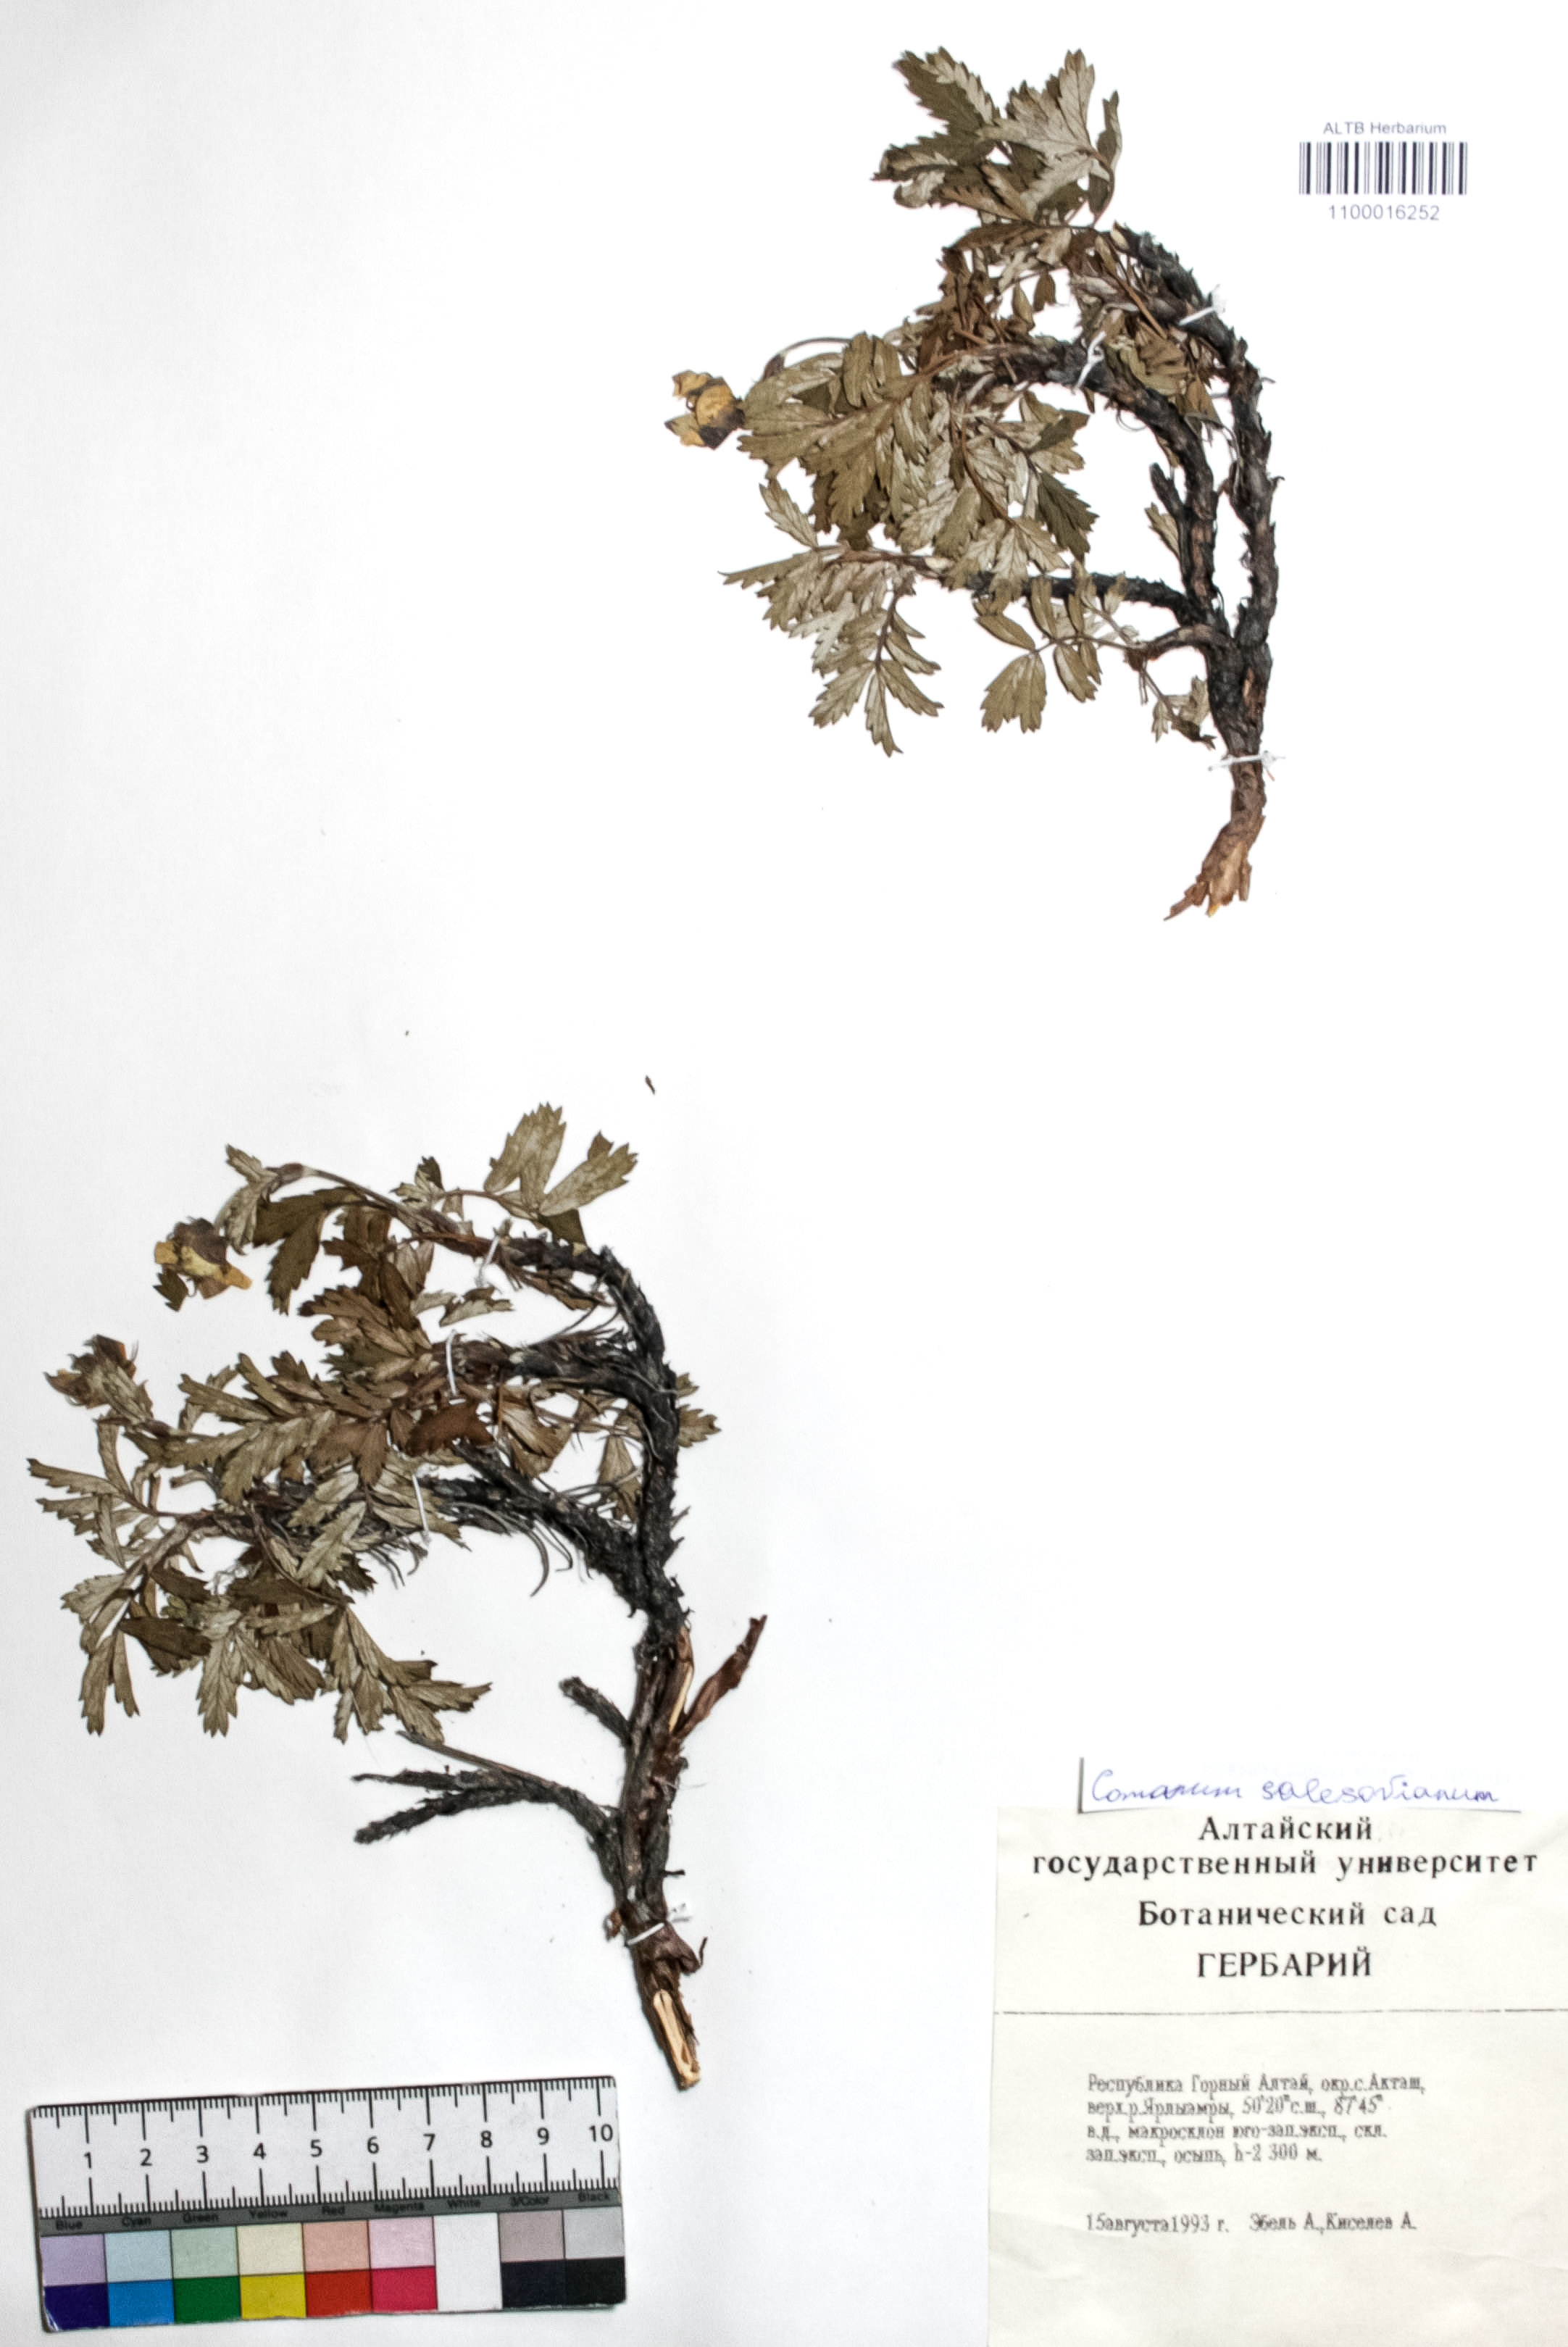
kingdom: Plantae
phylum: Tracheophyta
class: Magnoliopsida
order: Rosales
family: Rosaceae
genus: Farinopsis
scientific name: Farinopsis salesoviana
